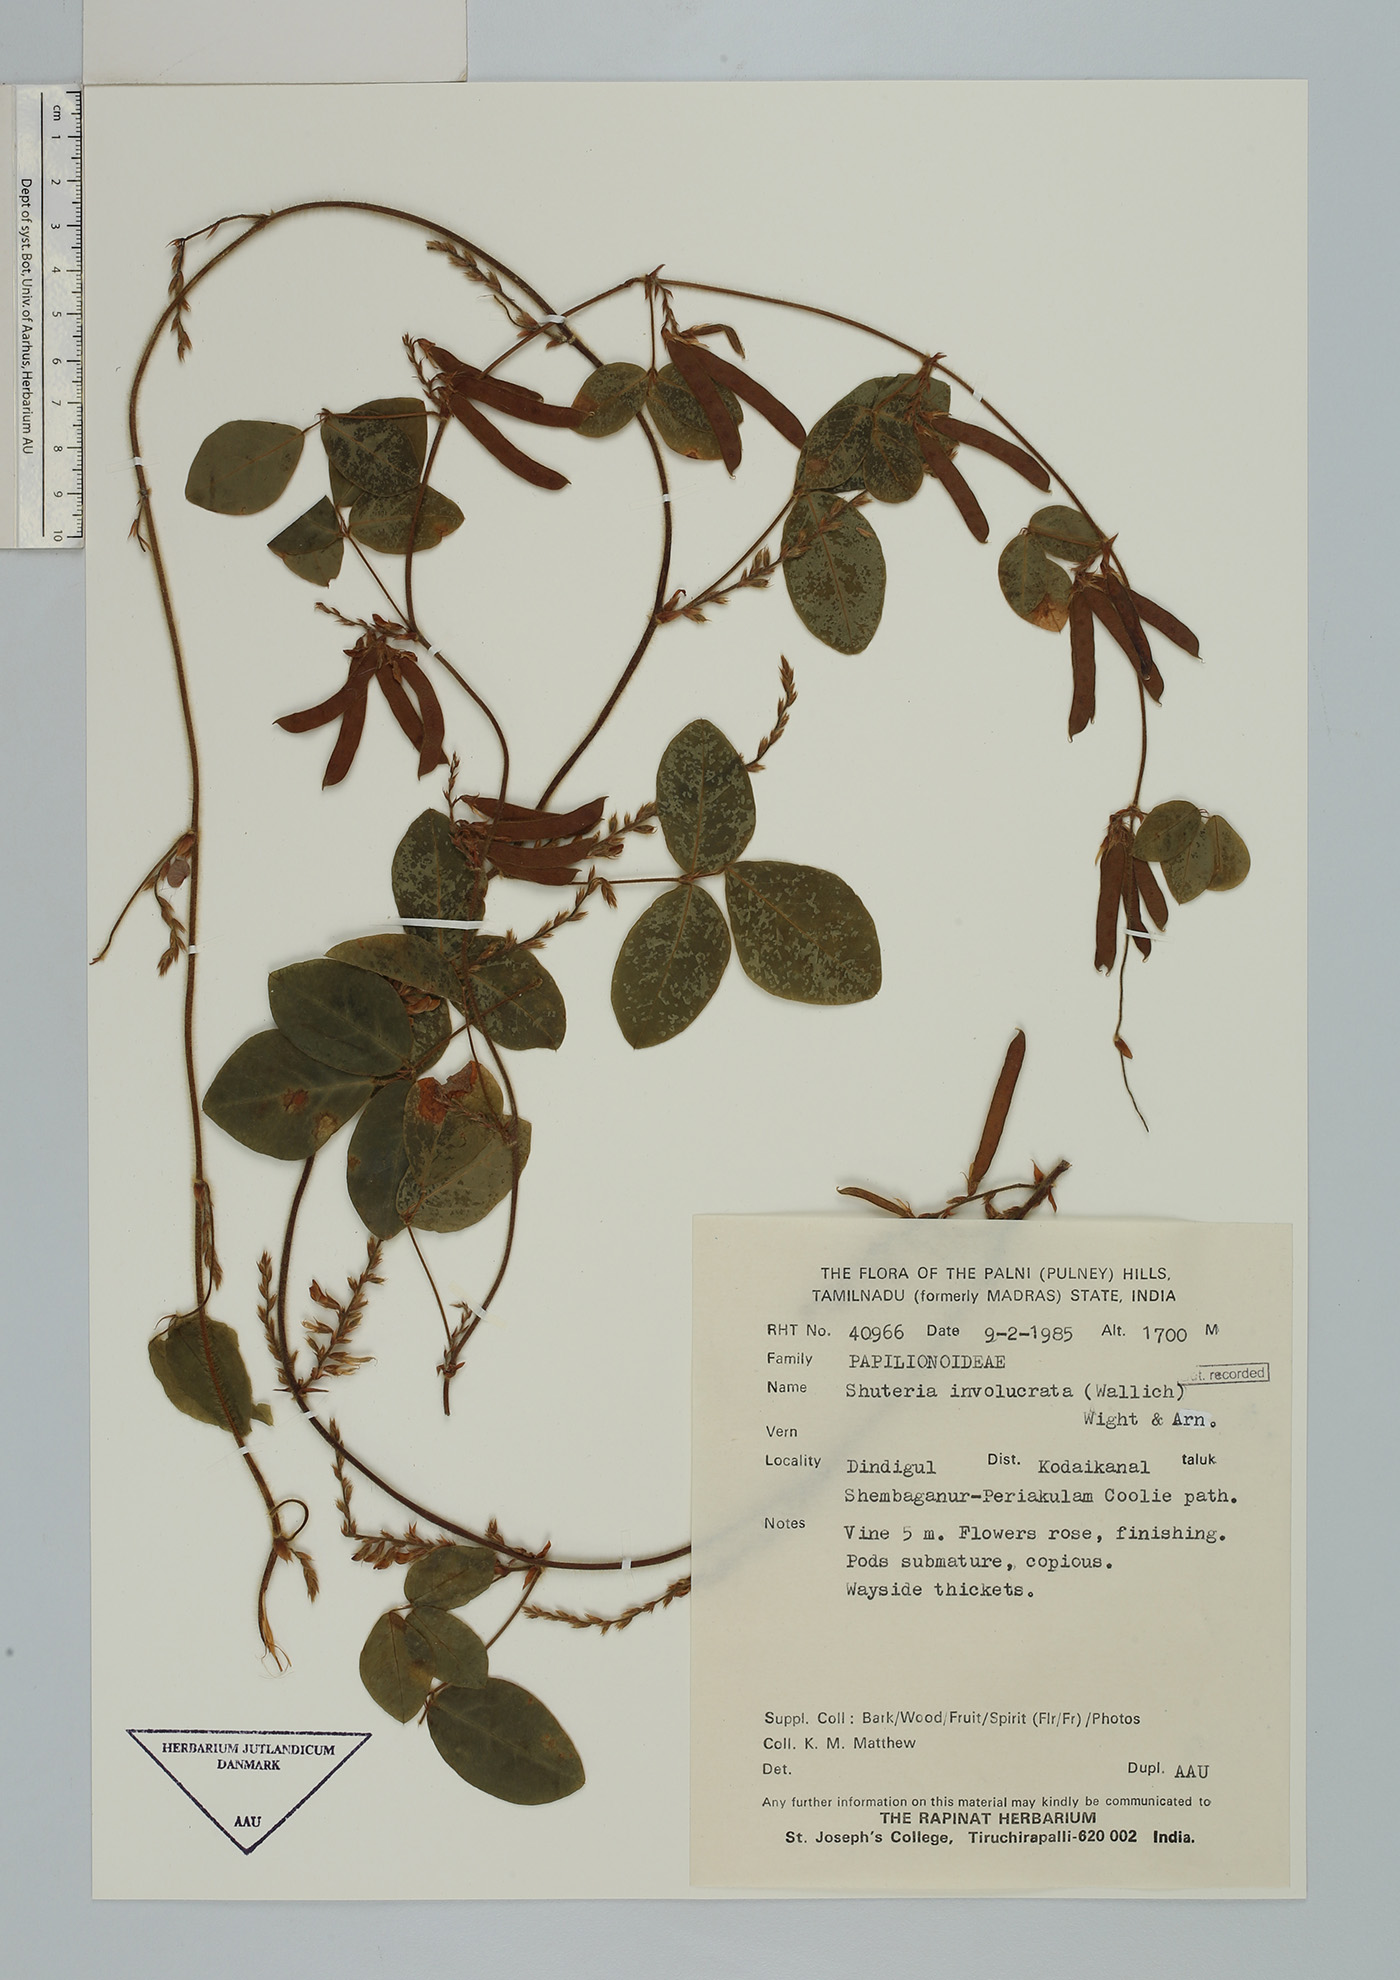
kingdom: Plantae
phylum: Tracheophyta
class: Magnoliopsida
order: Fabales
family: Fabaceae
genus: Shuteria
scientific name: Shuteria vestita
